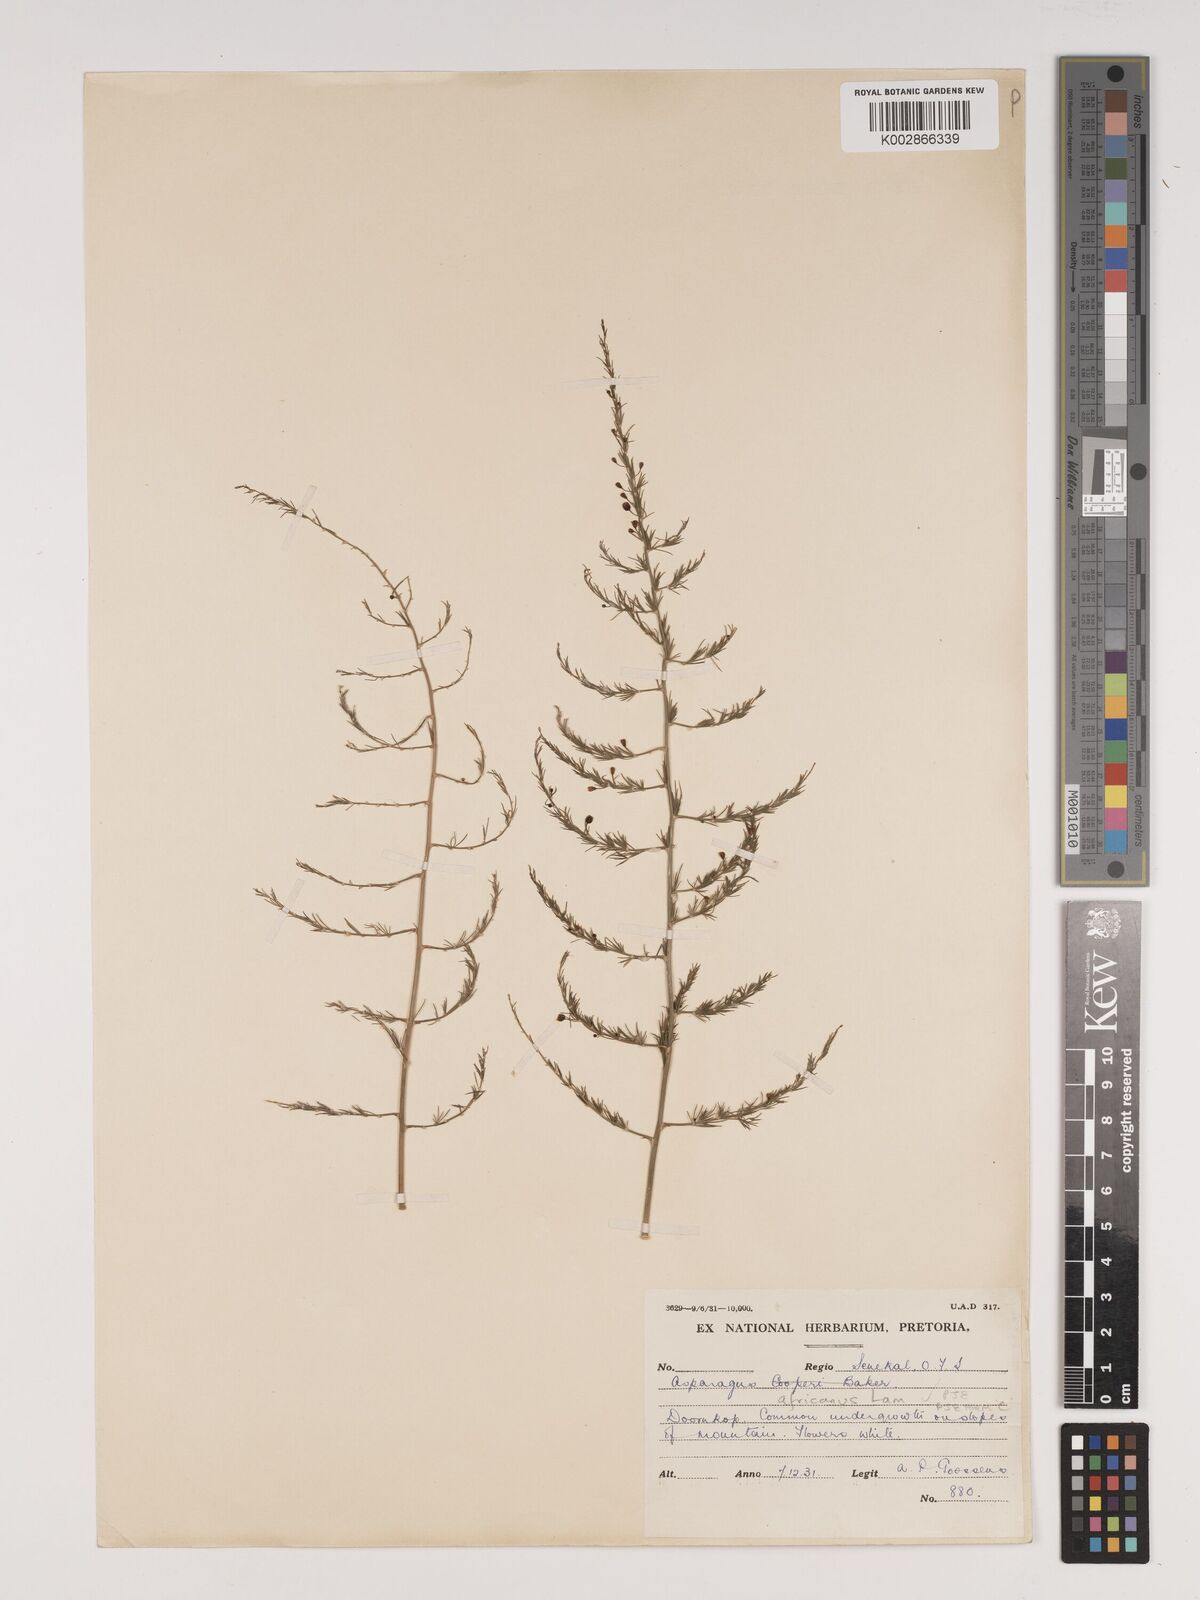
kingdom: Plantae
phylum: Tracheophyta
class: Liliopsida
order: Asparagales
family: Asparagaceae
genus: Asparagus
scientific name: Asparagus africanus
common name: Asparagus-fern
